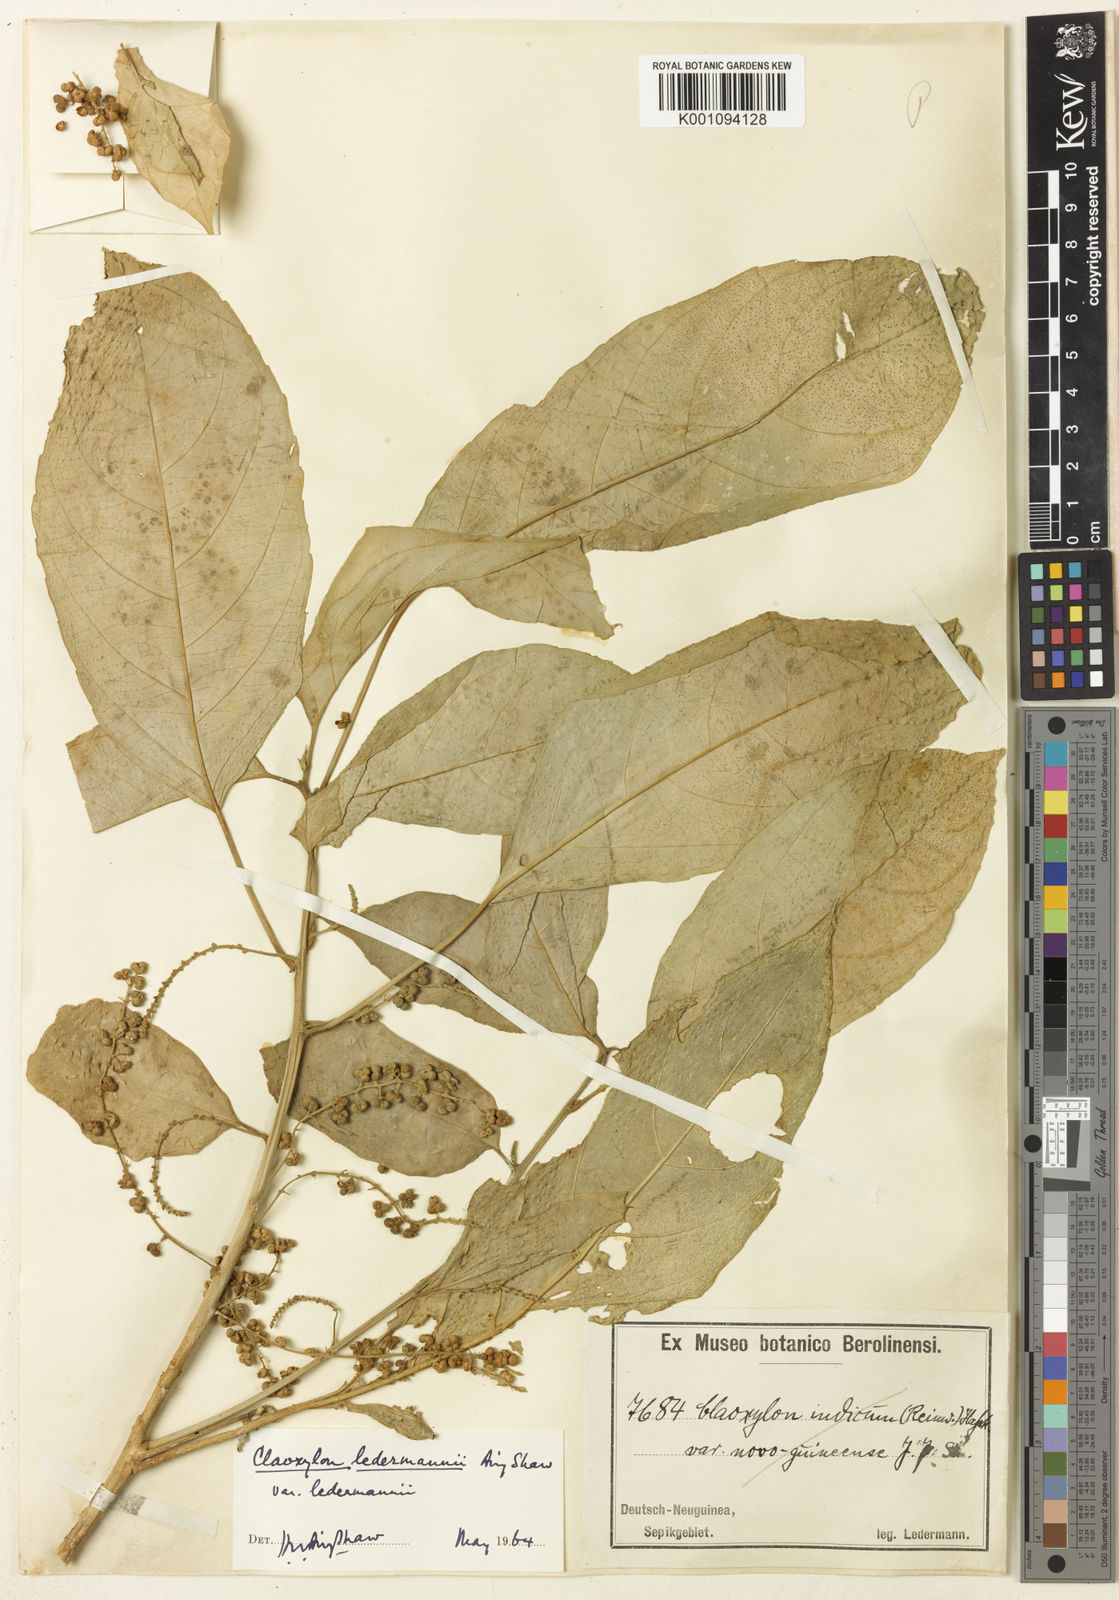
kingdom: Plantae
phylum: Tracheophyta
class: Magnoliopsida
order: Malpighiales
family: Euphorbiaceae
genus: Claoxylon
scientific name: Claoxylon ledermannii
